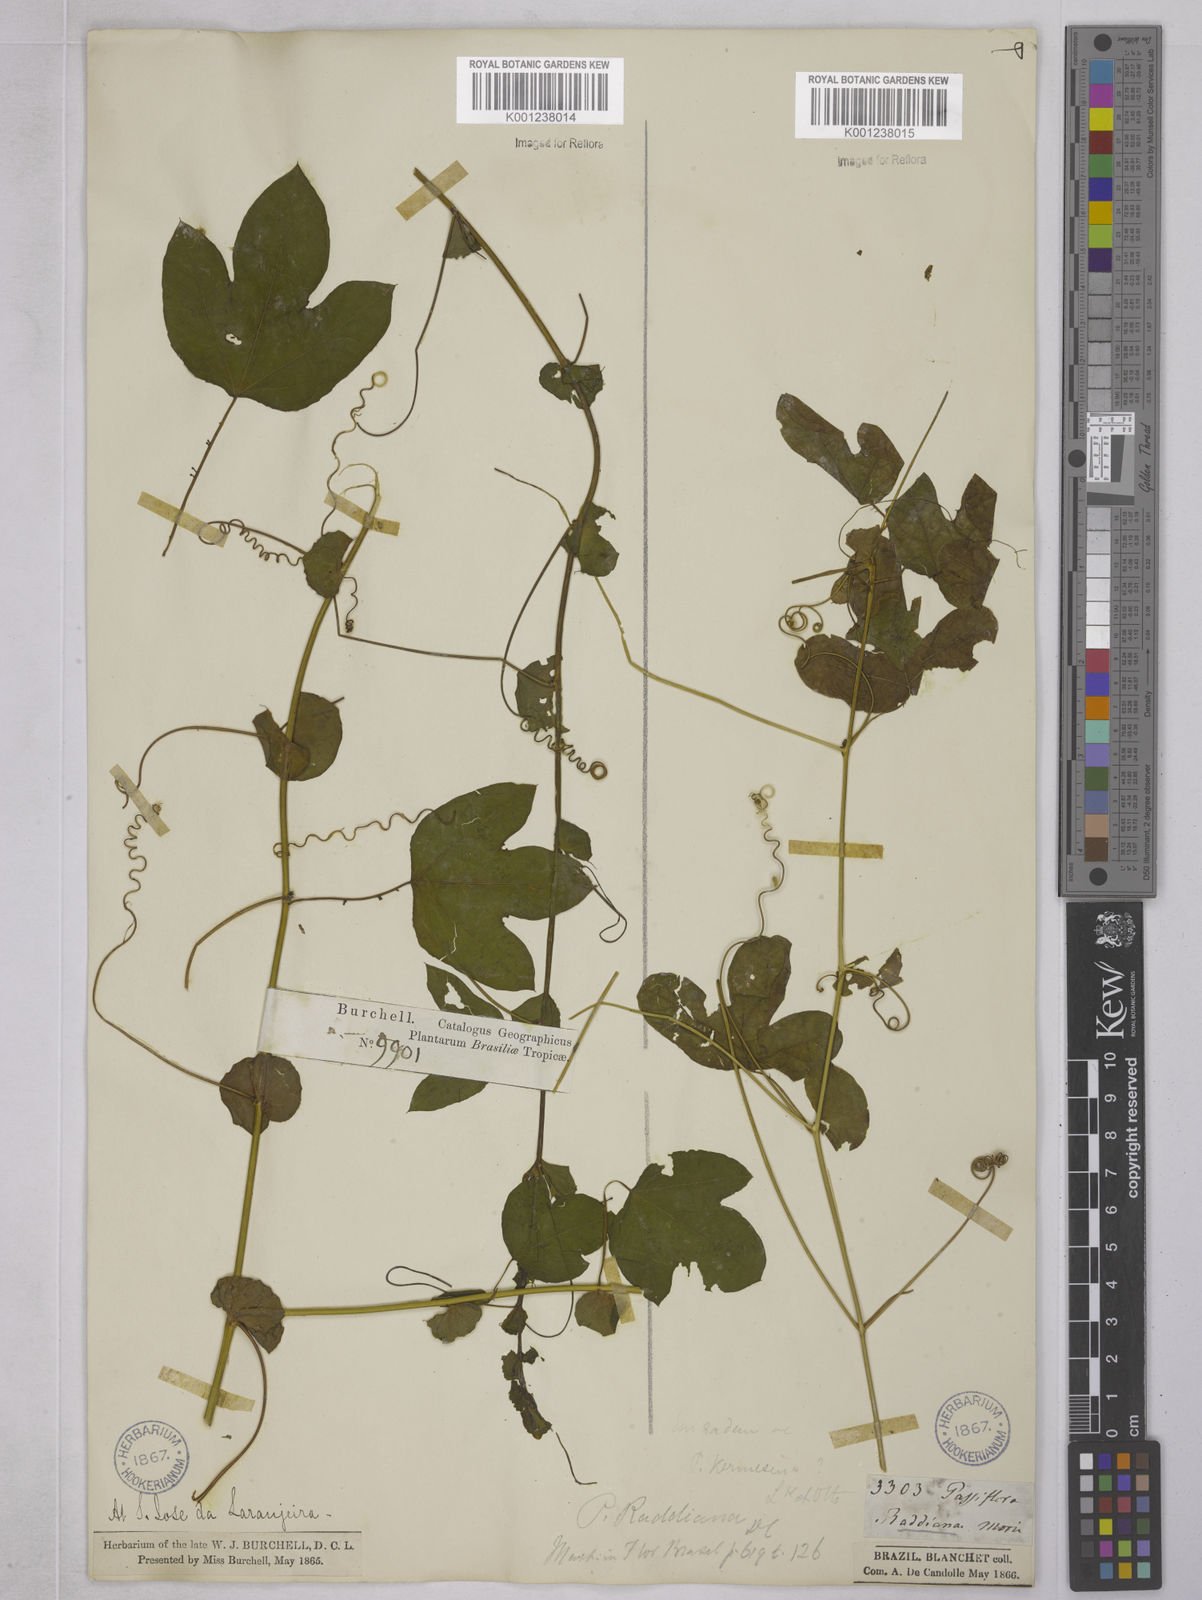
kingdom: Plantae
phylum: Tracheophyta
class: Magnoliopsida
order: Malpighiales
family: Passifloraceae
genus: Passiflora
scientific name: Passiflora kermesina
